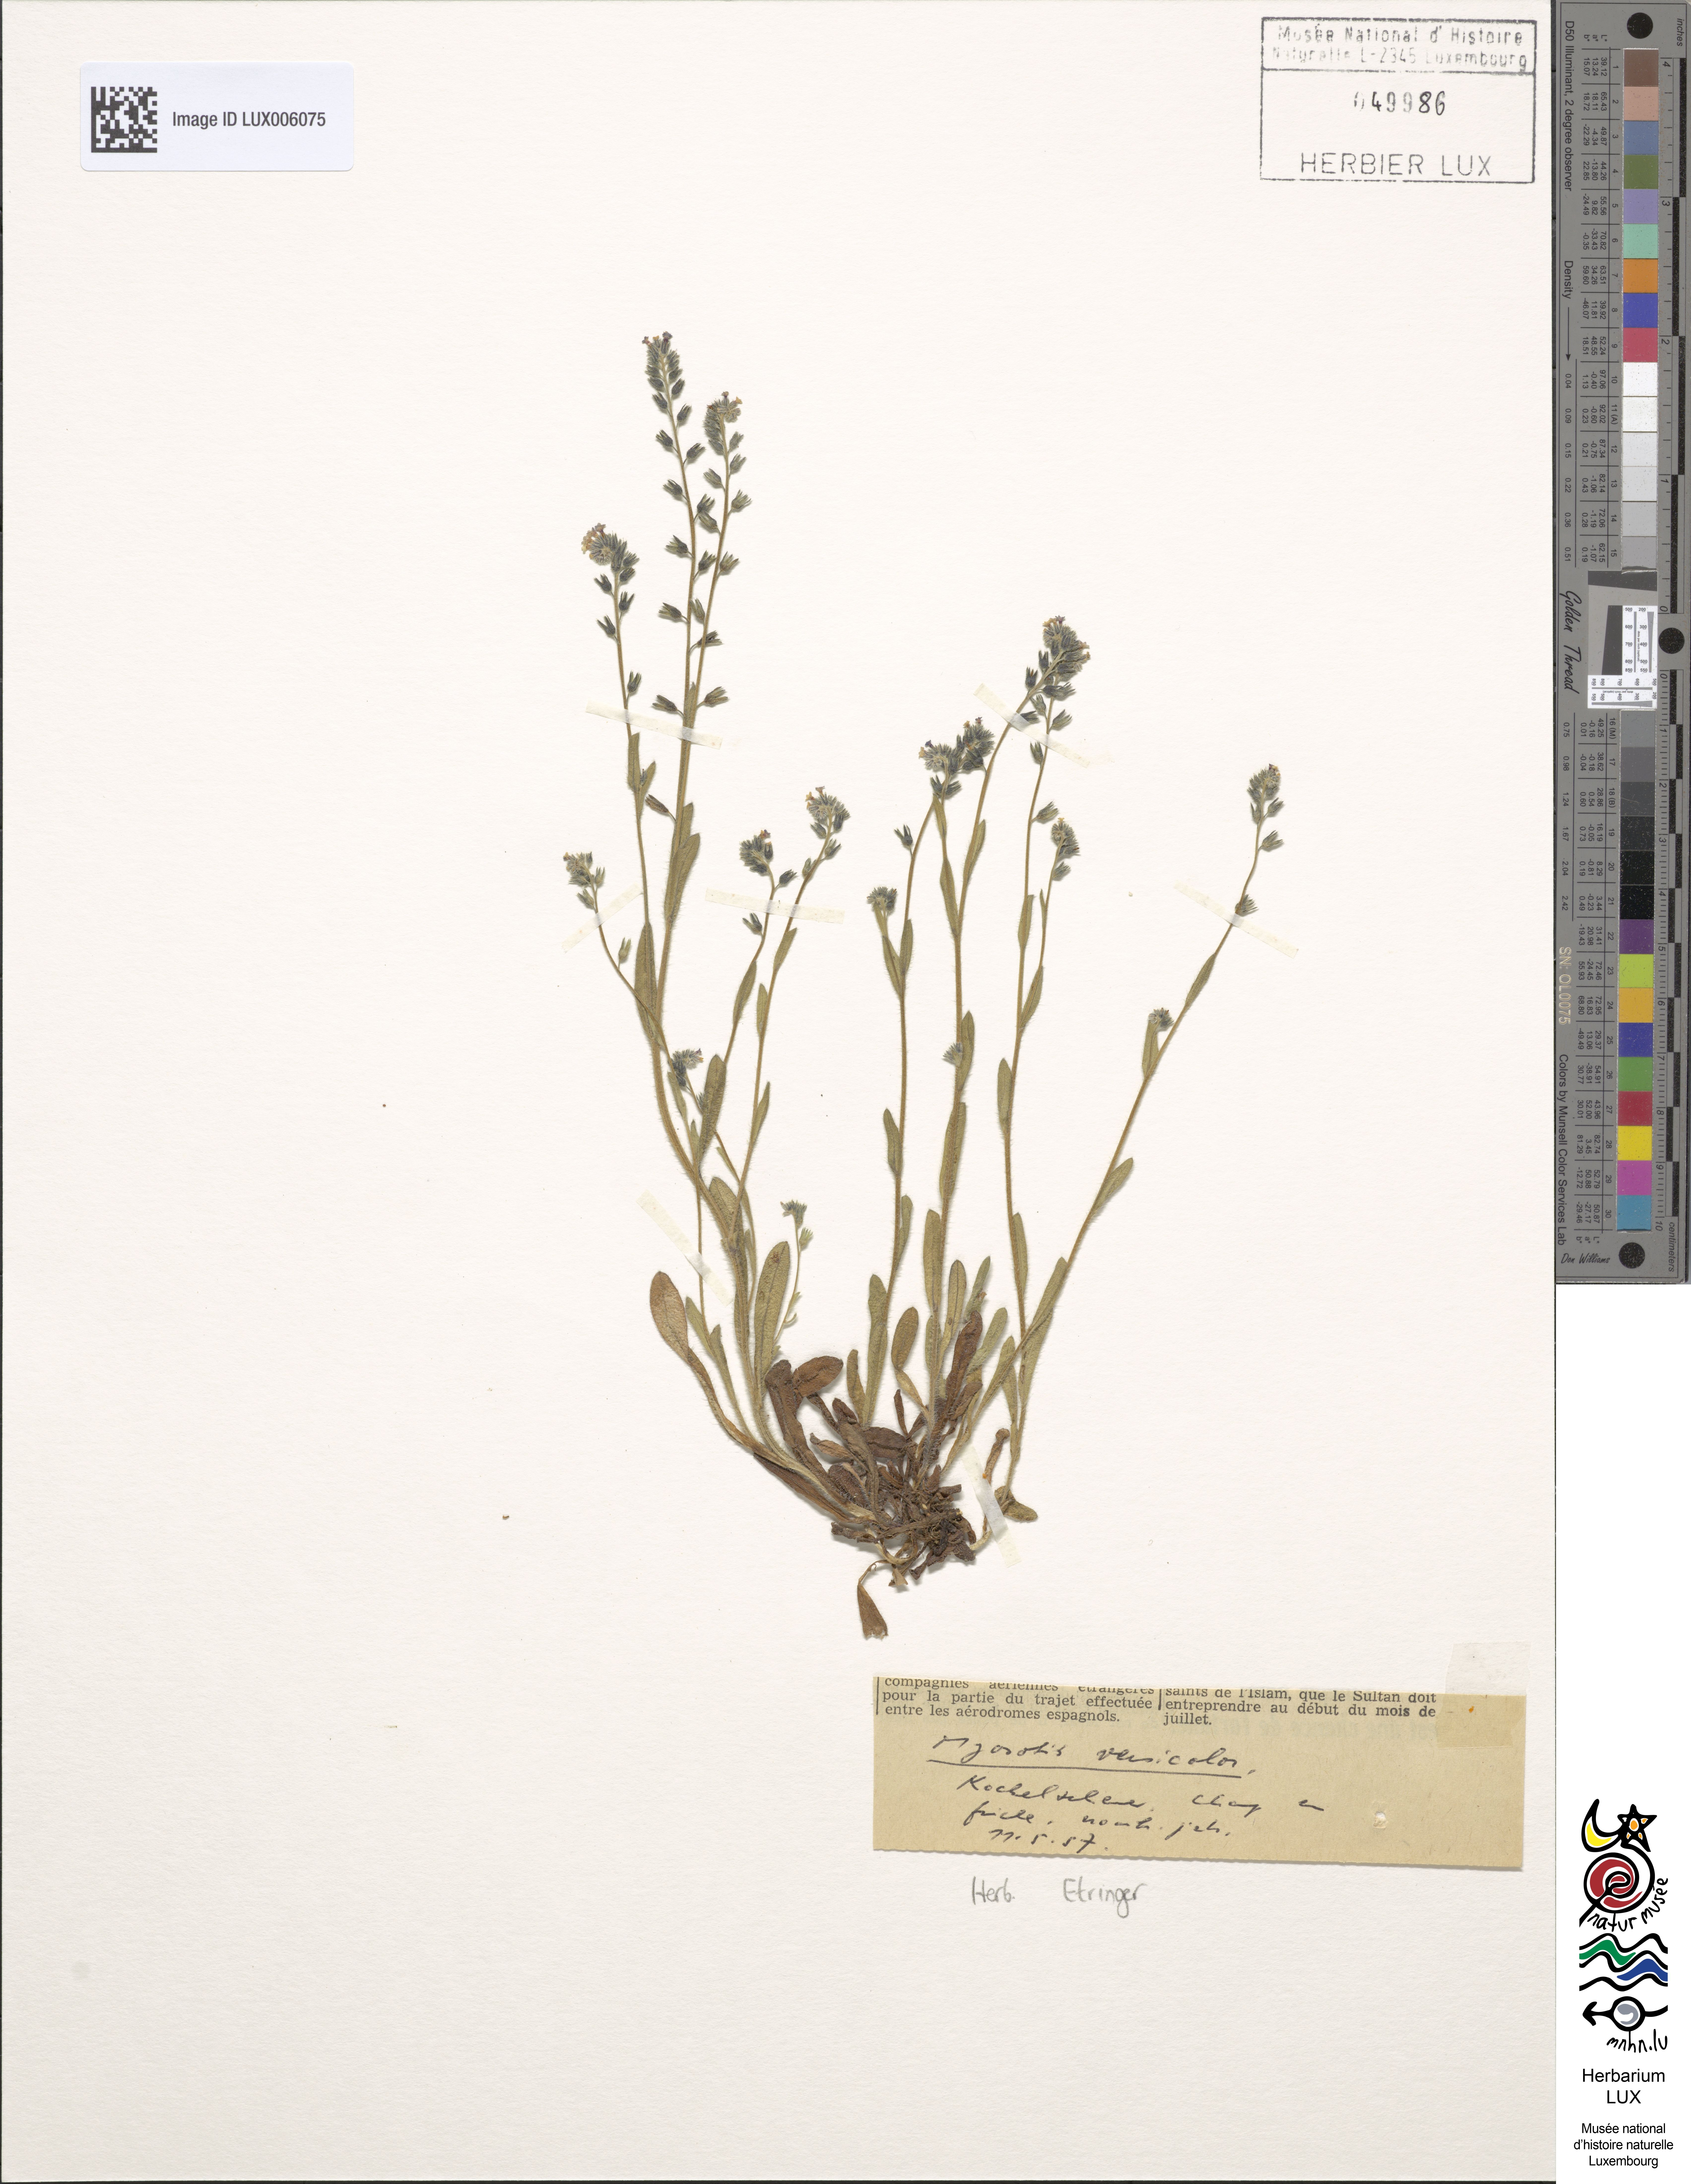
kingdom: Plantae
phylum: Tracheophyta
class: Magnoliopsida
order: Boraginales
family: Boraginaceae
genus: Myosotis
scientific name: Myosotis discolor
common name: Changing forget-me-not
